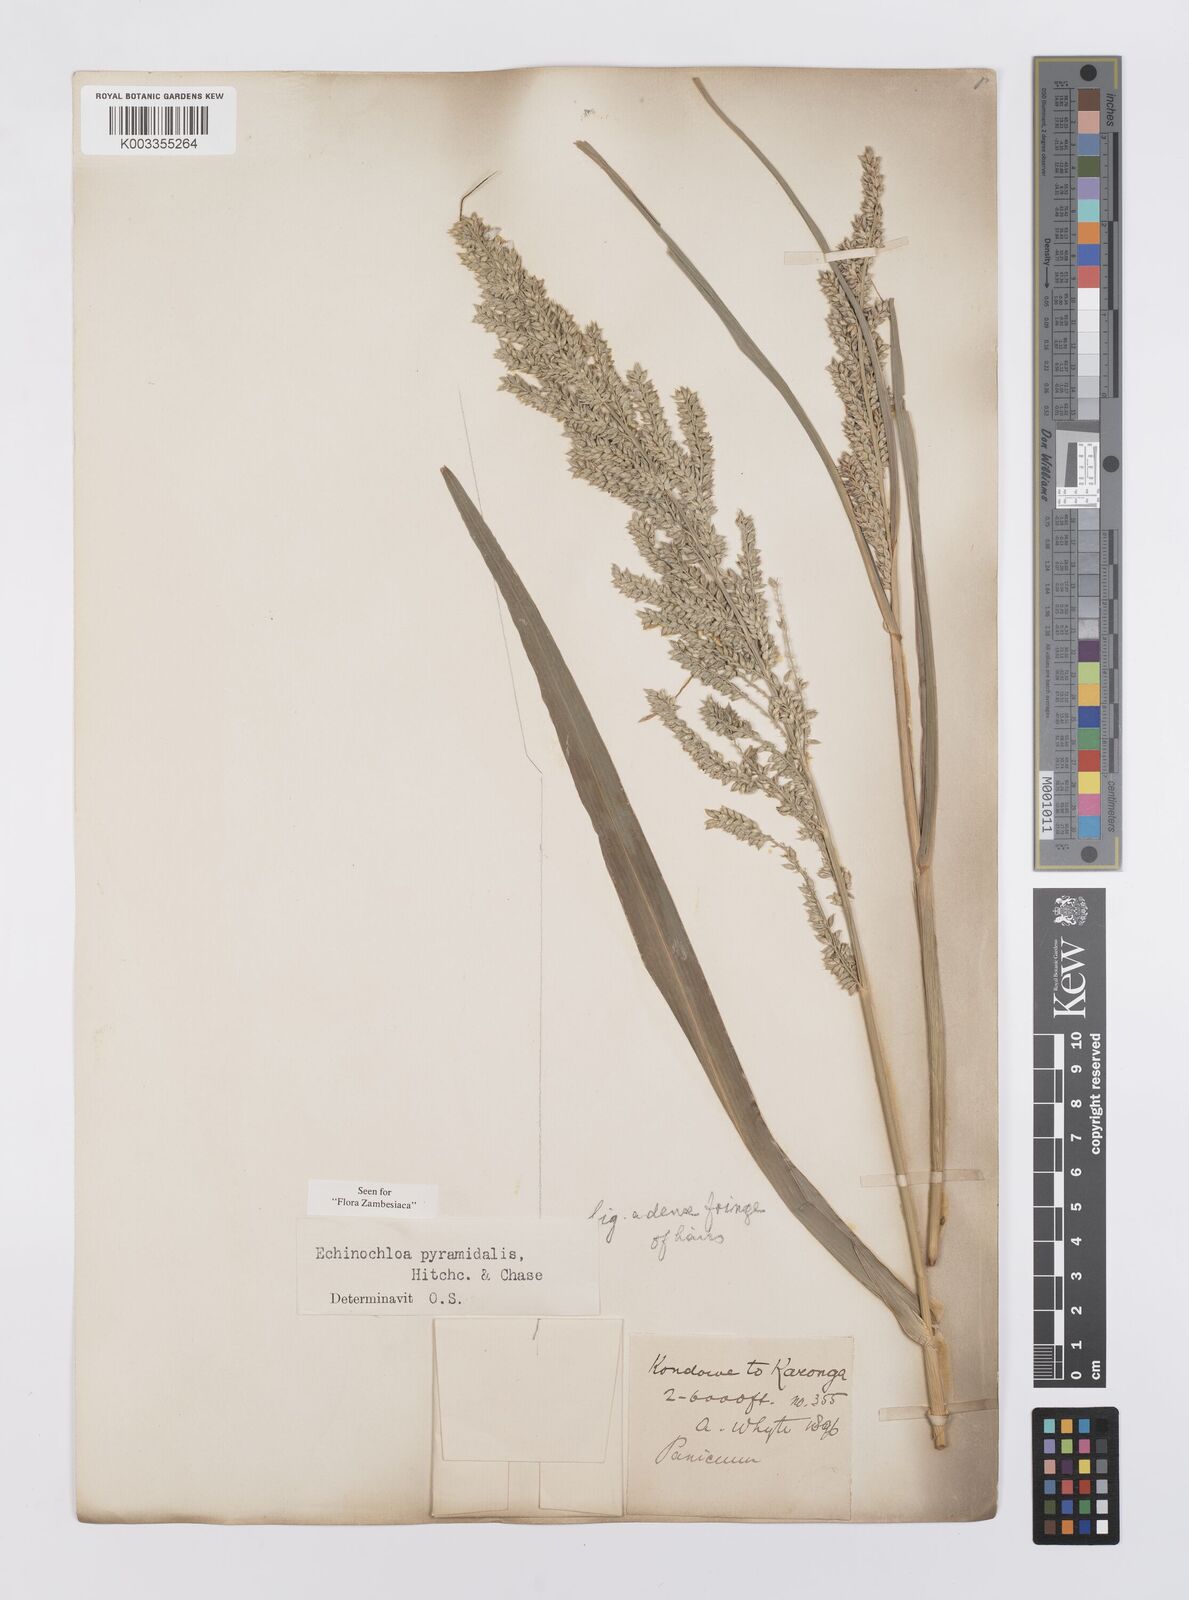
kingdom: Plantae
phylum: Tracheophyta
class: Liliopsida
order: Poales
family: Poaceae
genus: Echinochloa
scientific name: Echinochloa pyramidalis
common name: Antelope grass
